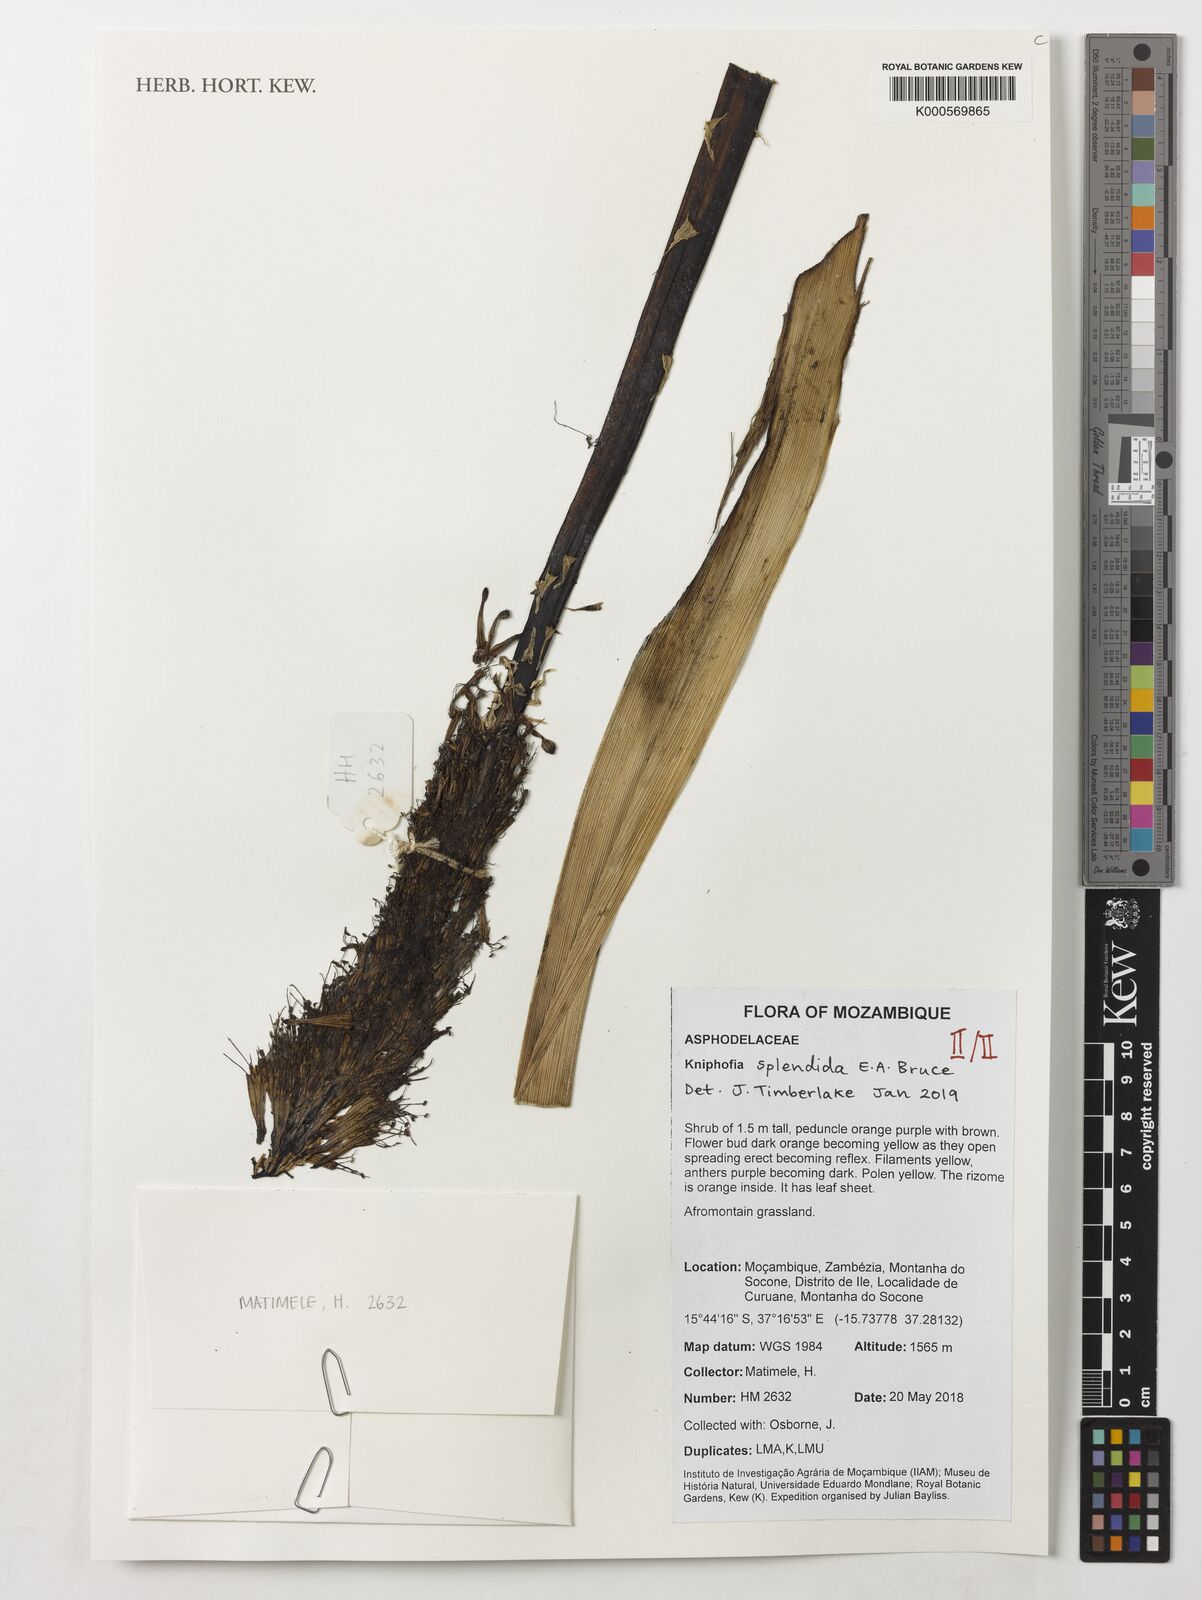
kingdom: Plantae
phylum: Tracheophyta
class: Liliopsida
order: Asparagales
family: Asphodelaceae
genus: Kniphofia
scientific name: Kniphofia splendida
